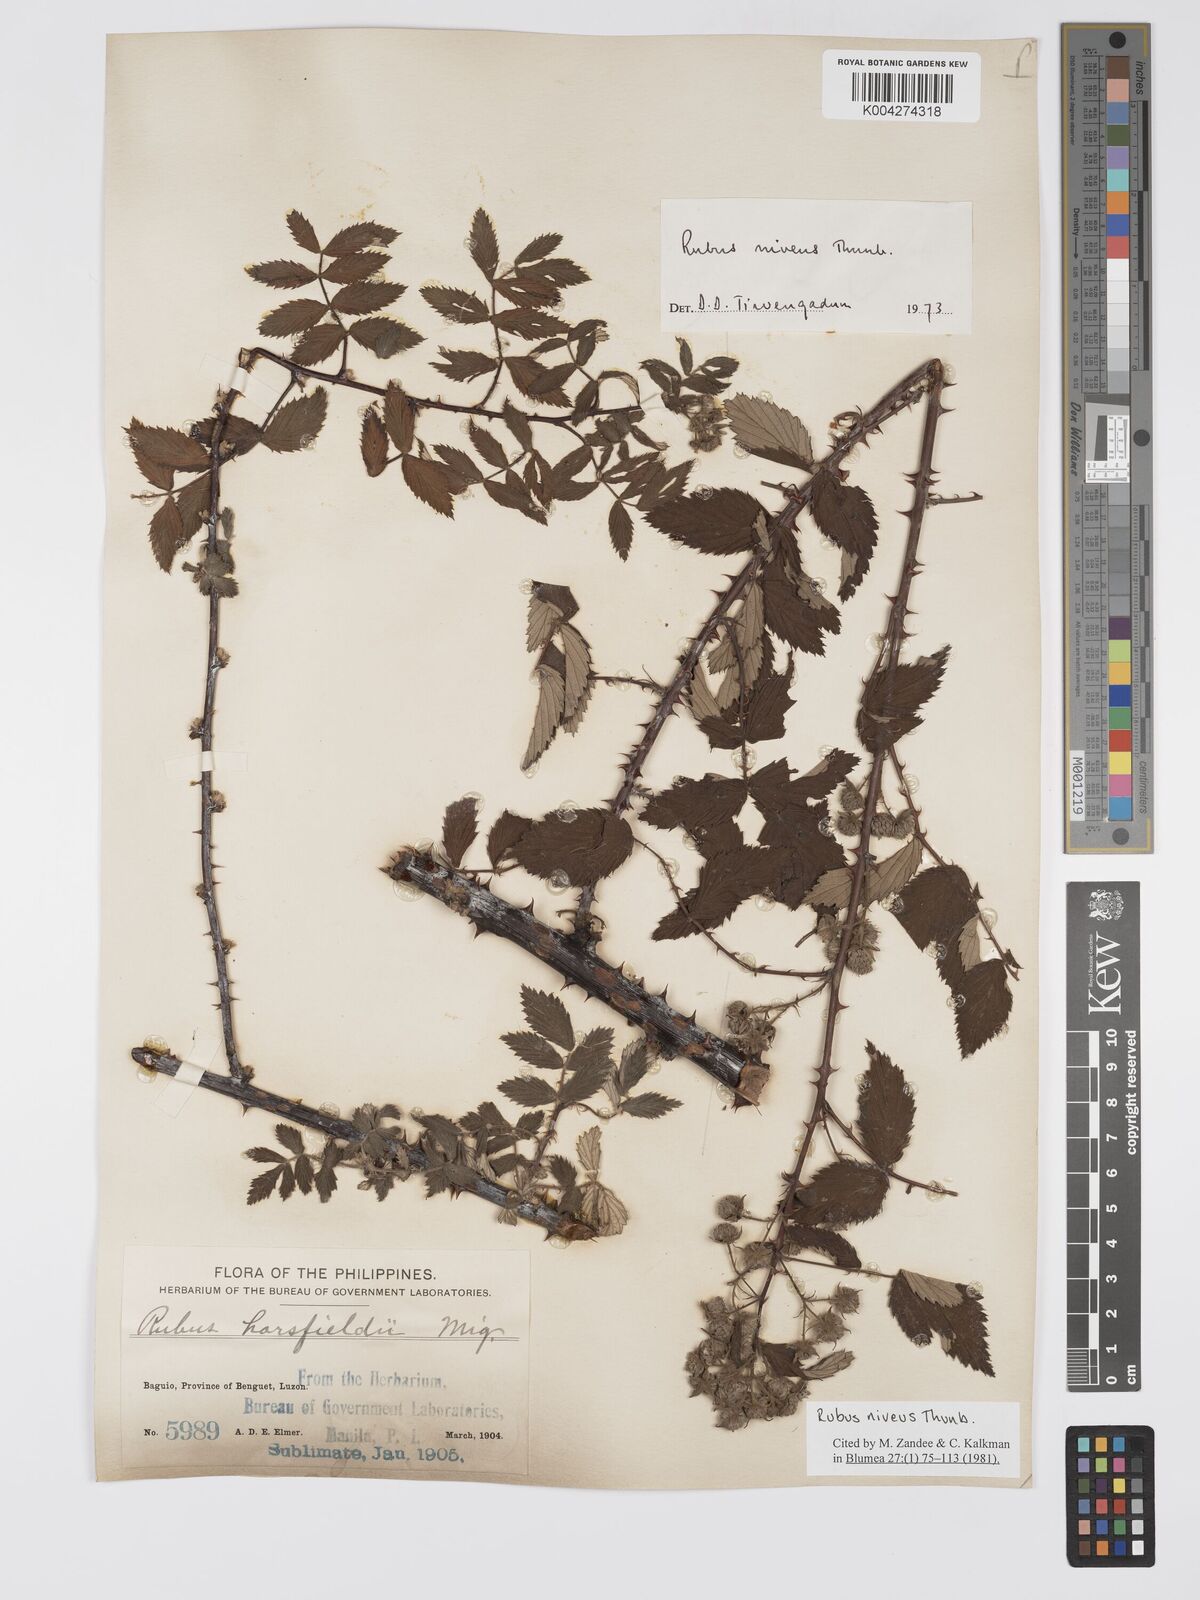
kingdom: Plantae
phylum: Tracheophyta
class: Magnoliopsida
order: Rosales
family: Rosaceae
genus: Rubus
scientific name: Rubus
